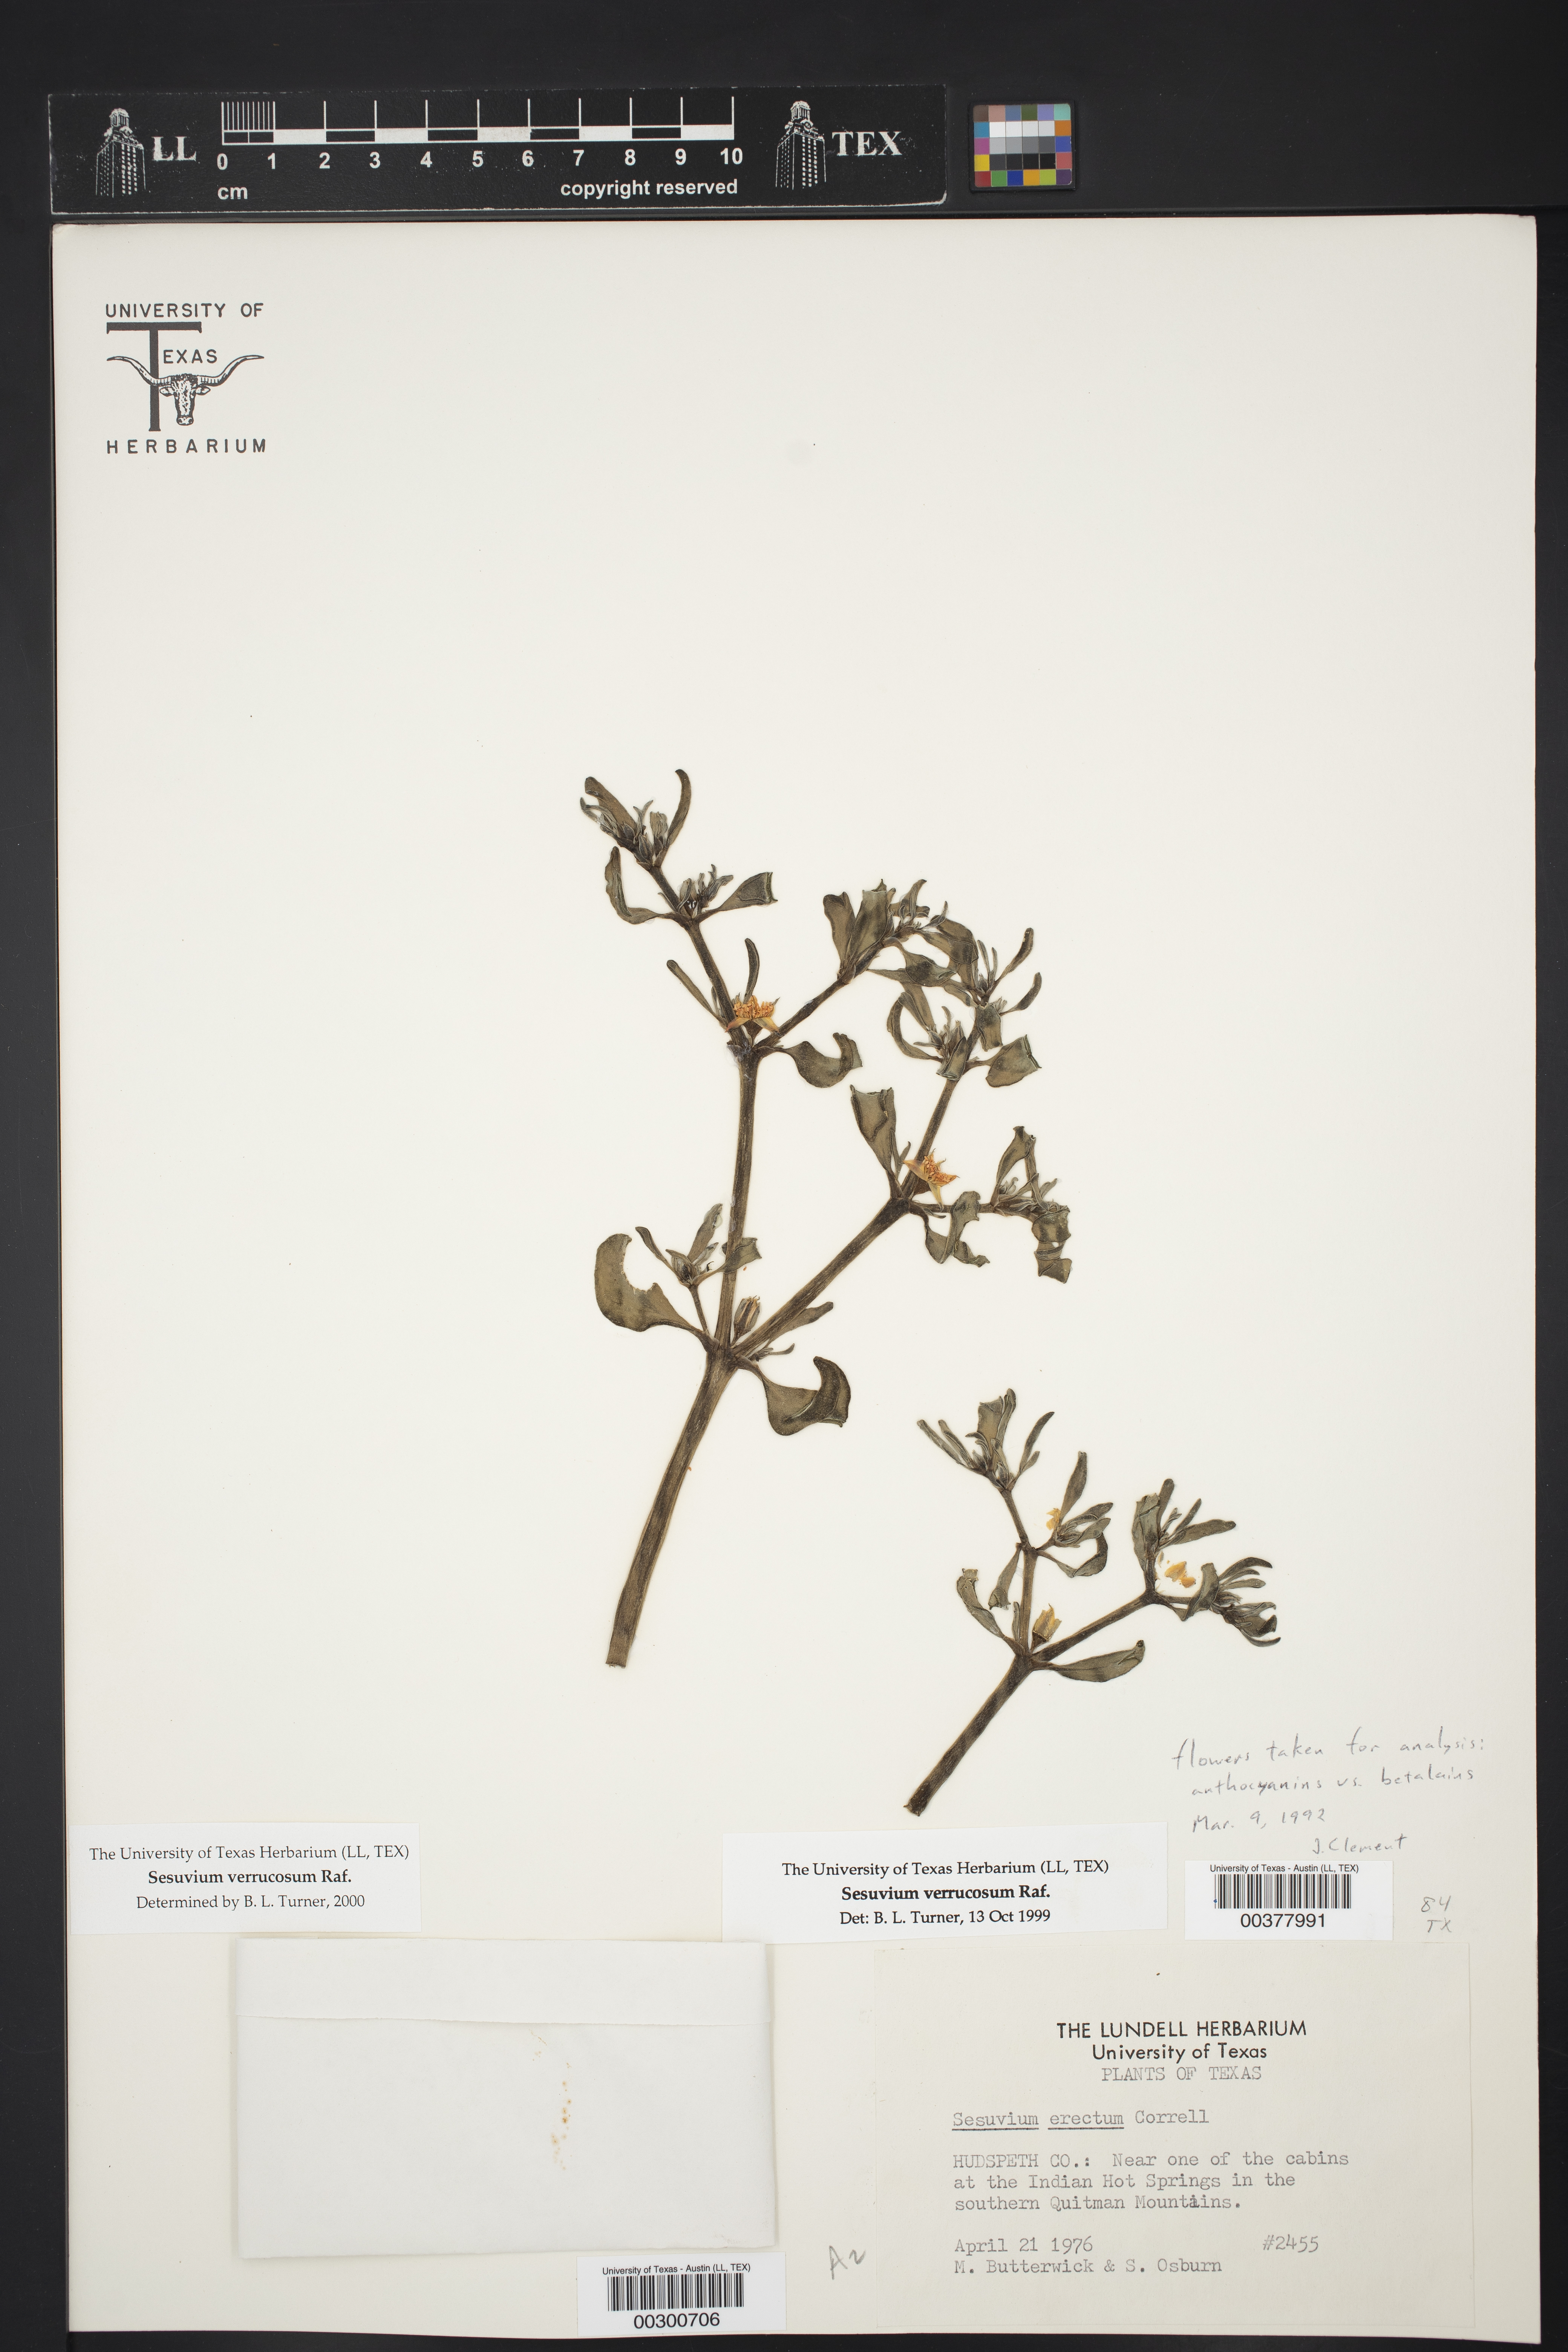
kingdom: Plantae
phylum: Tracheophyta
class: Magnoliopsida
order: Caryophyllales
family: Aizoaceae
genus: Sesuvium
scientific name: Sesuvium revolutifolium
